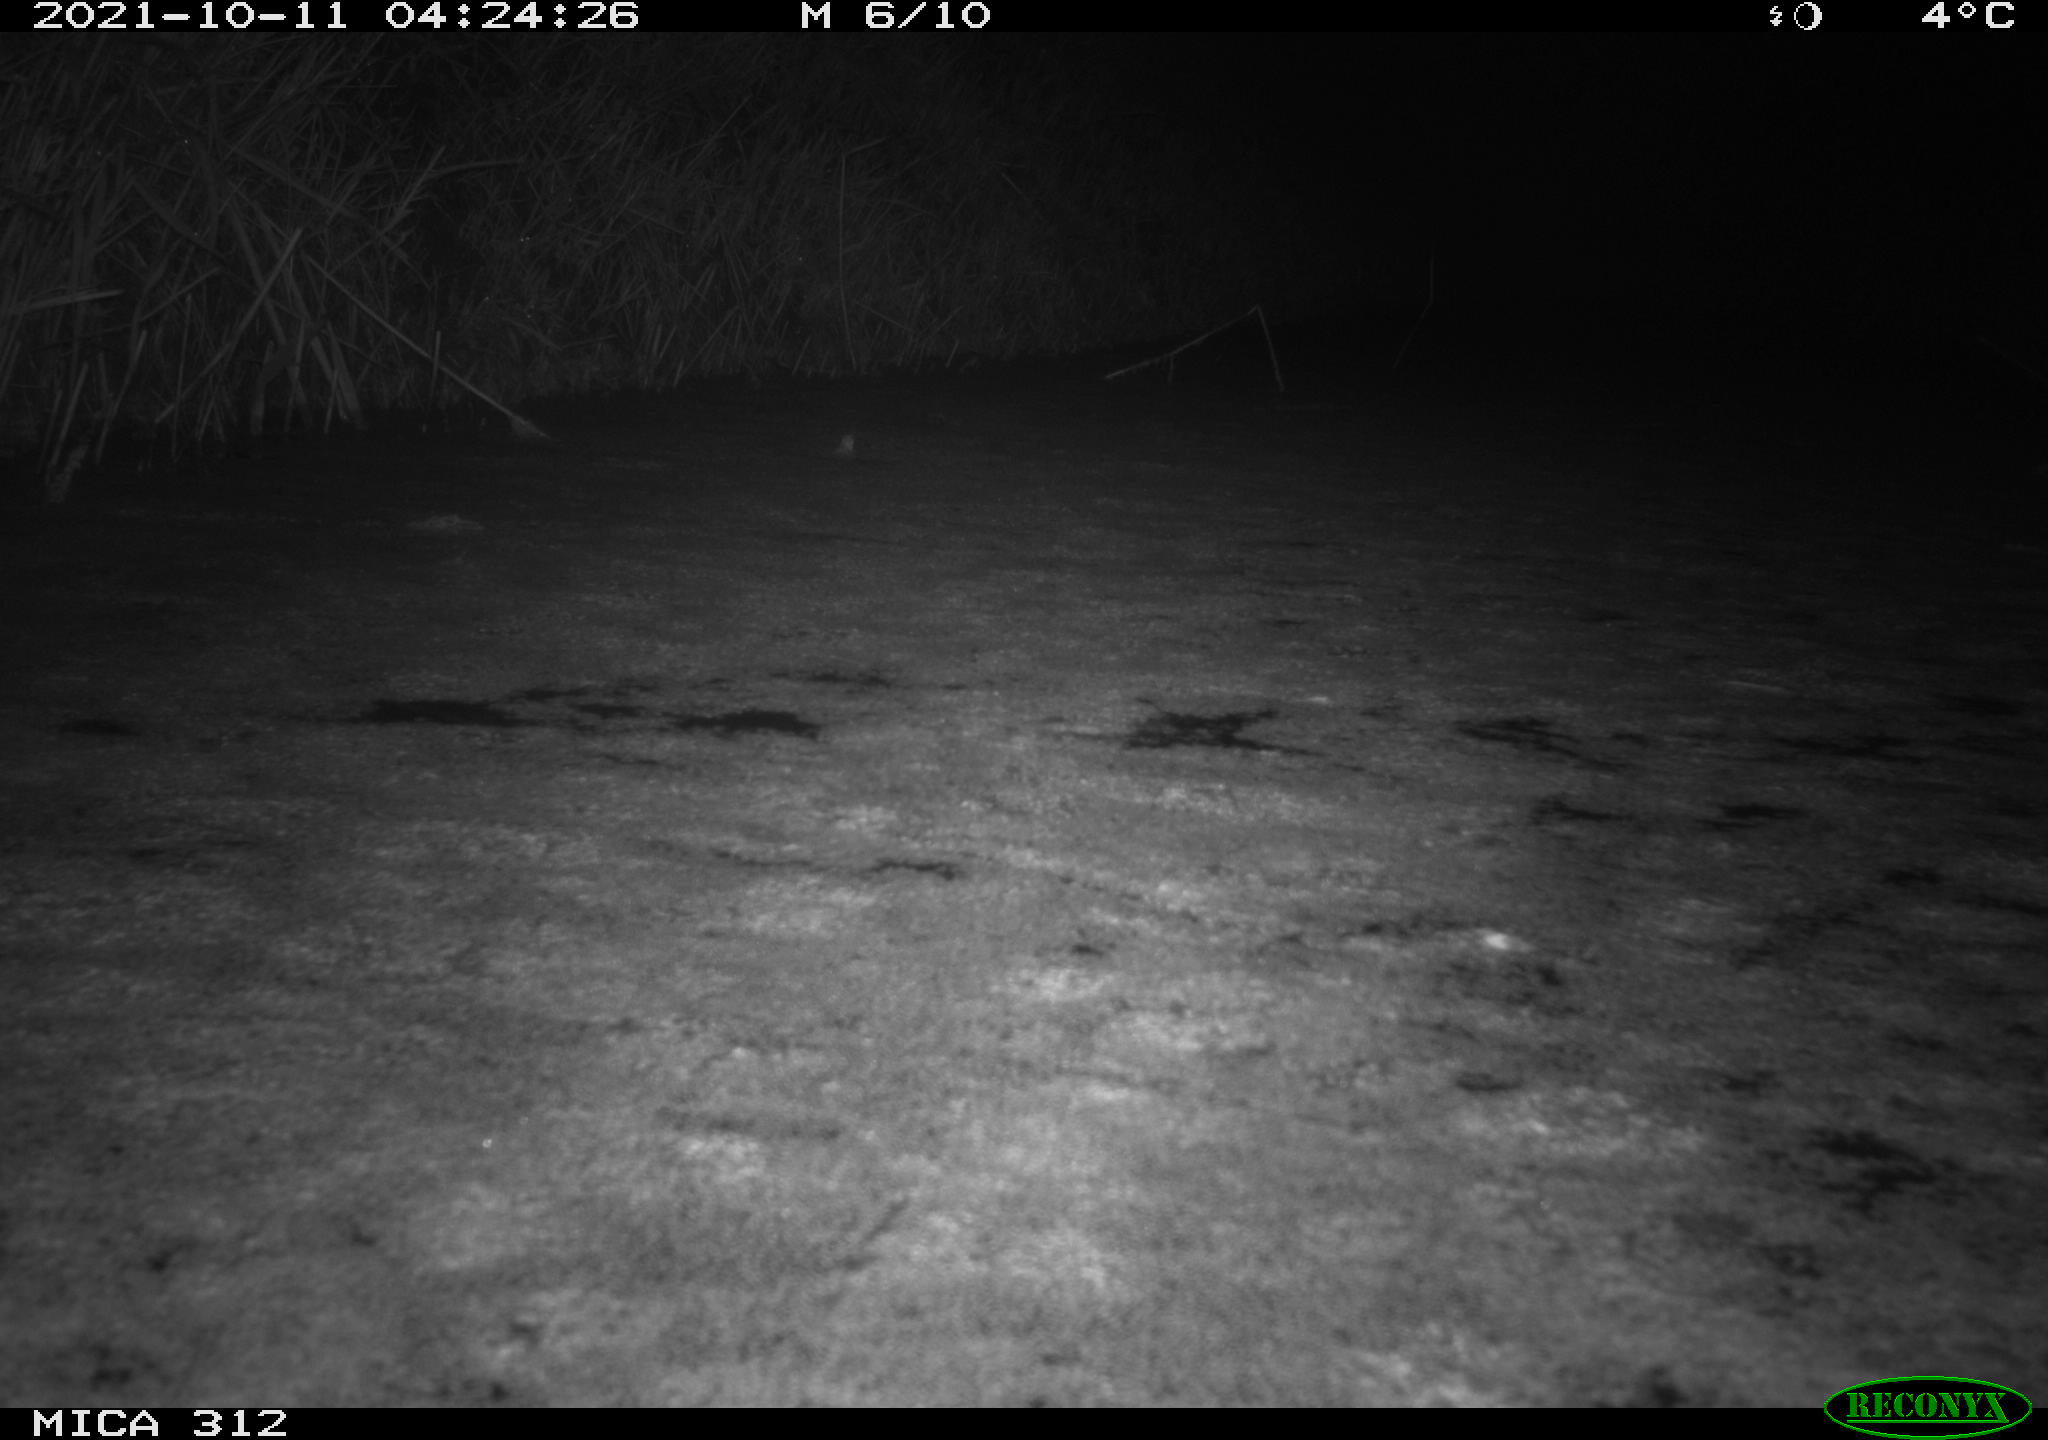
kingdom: Animalia
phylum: Chordata
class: Mammalia
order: Rodentia
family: Muridae
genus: Rattus
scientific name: Rattus norvegicus
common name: Brown rat
